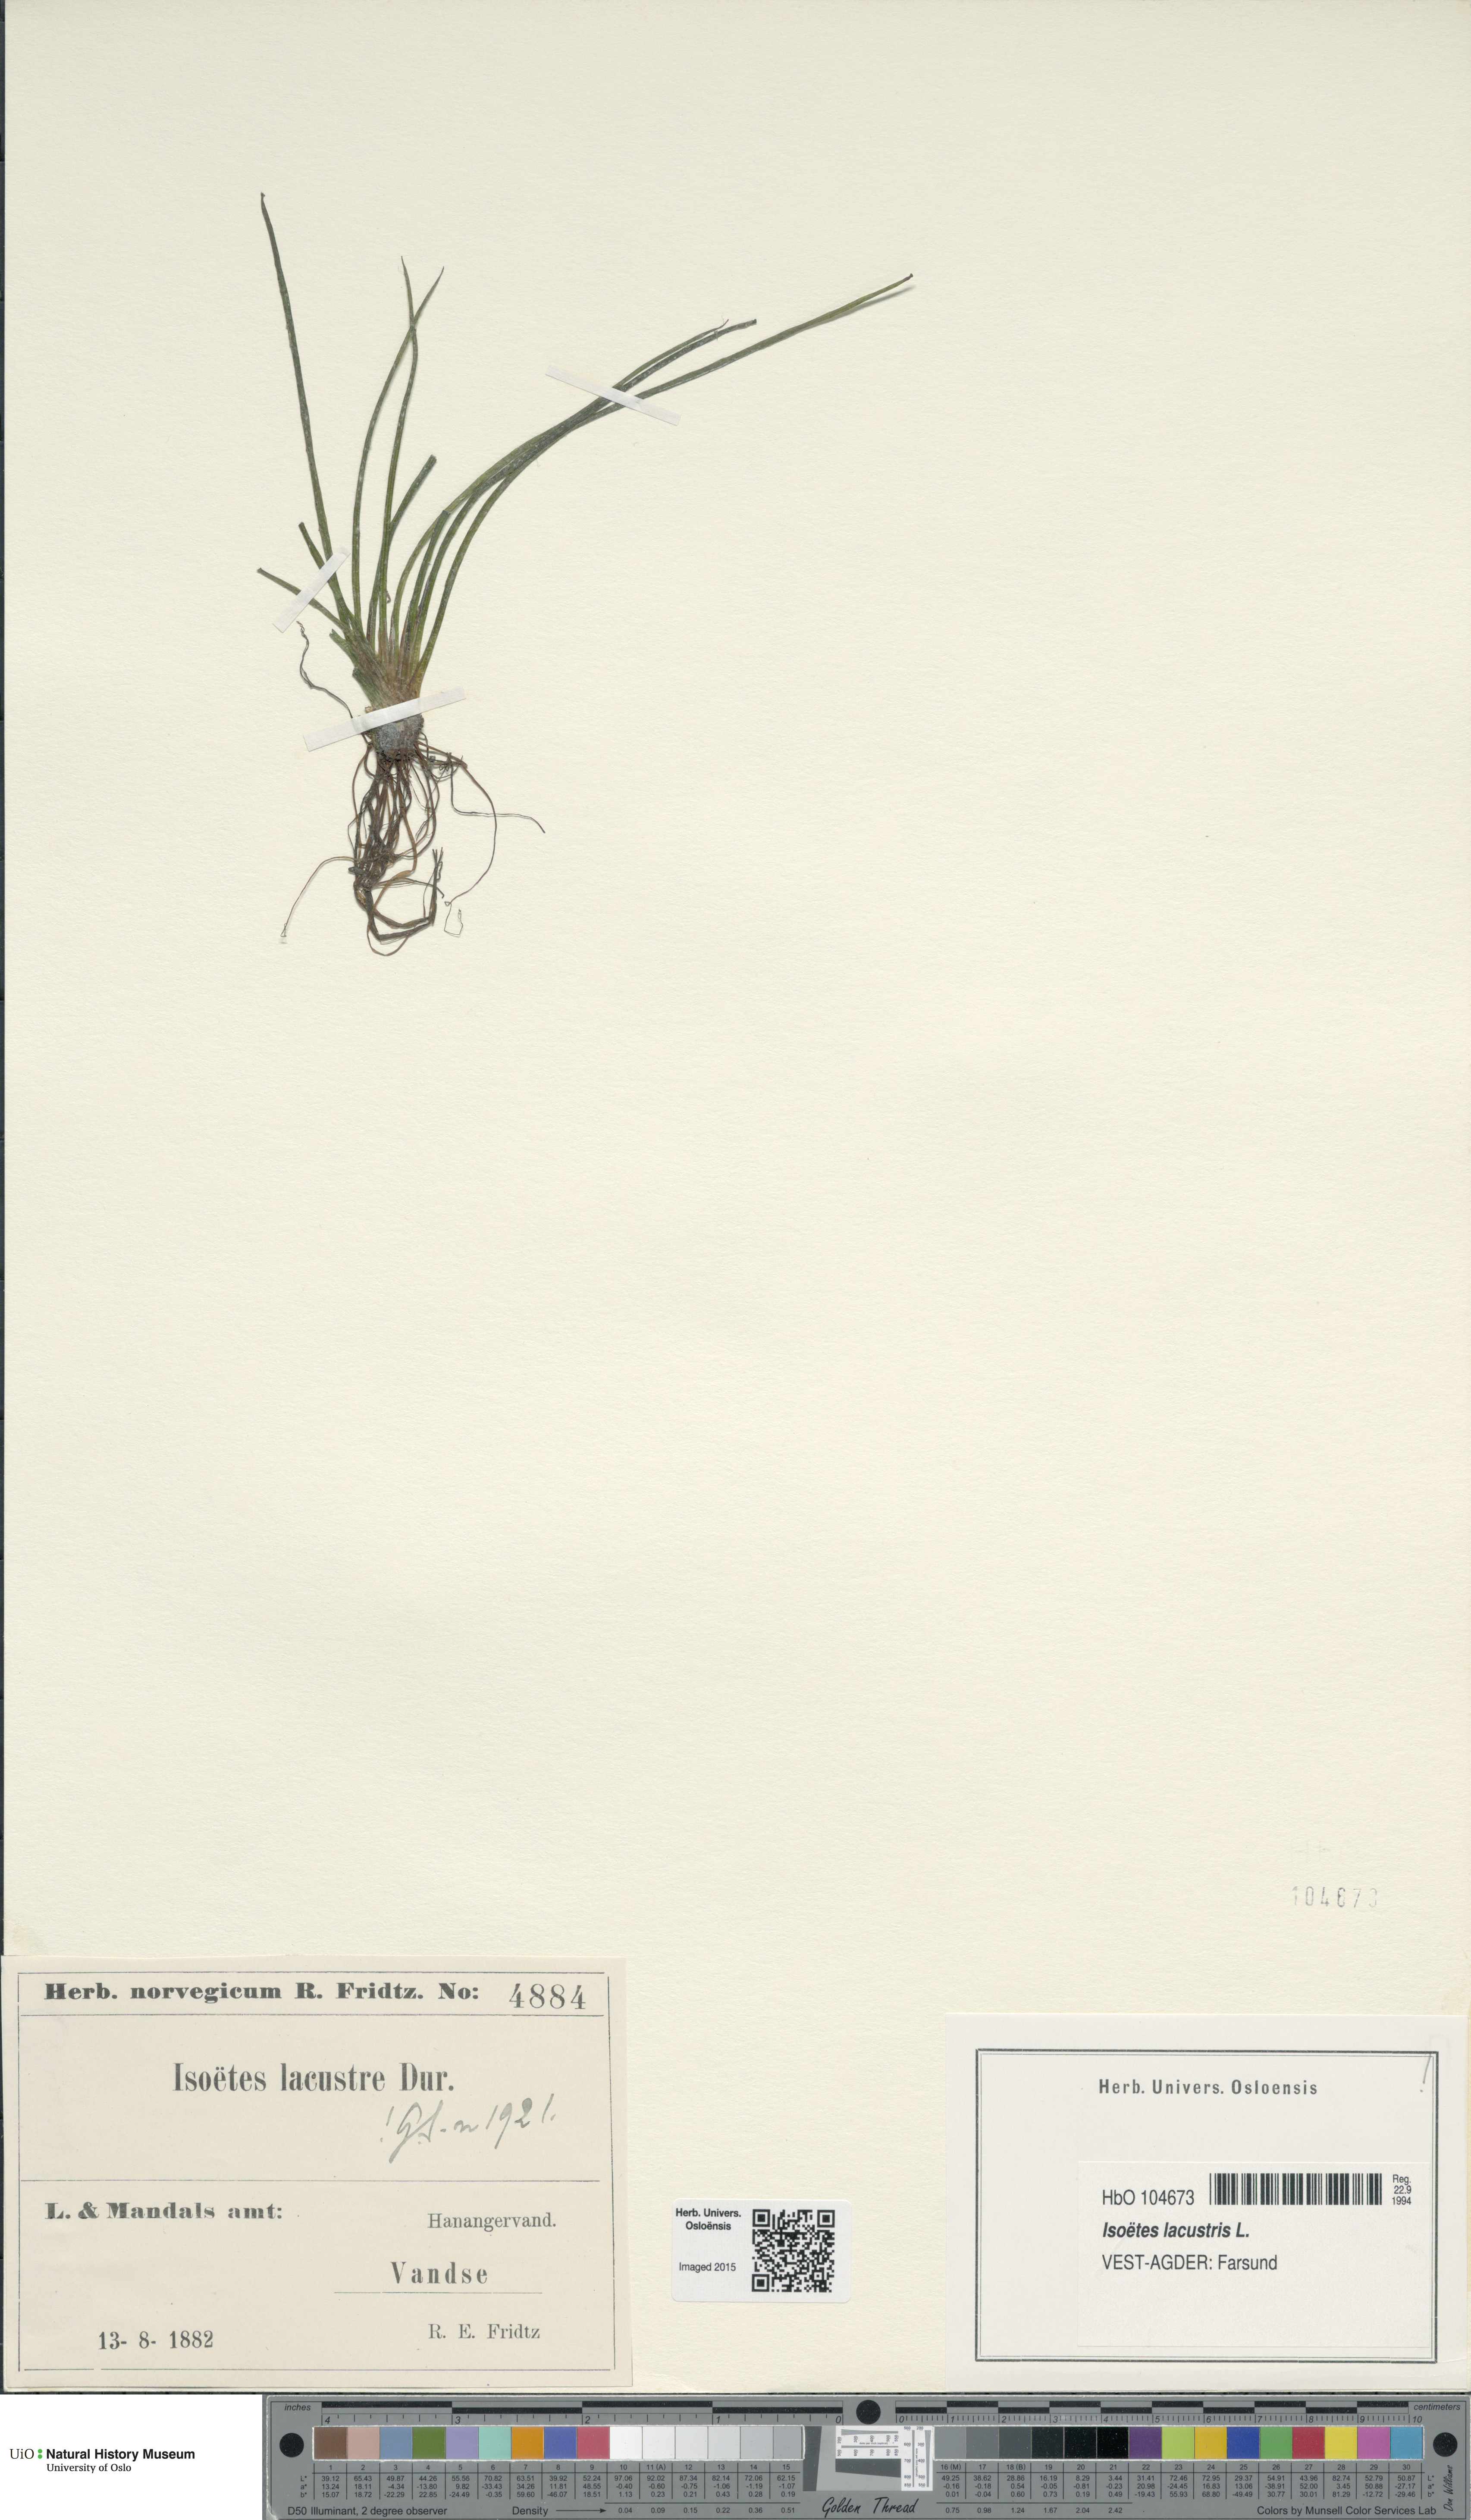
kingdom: Plantae
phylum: Tracheophyta
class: Lycopodiopsida
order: Isoetales
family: Isoetaceae
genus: Isoetes
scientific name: Isoetes lacustris
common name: Common quillwort
